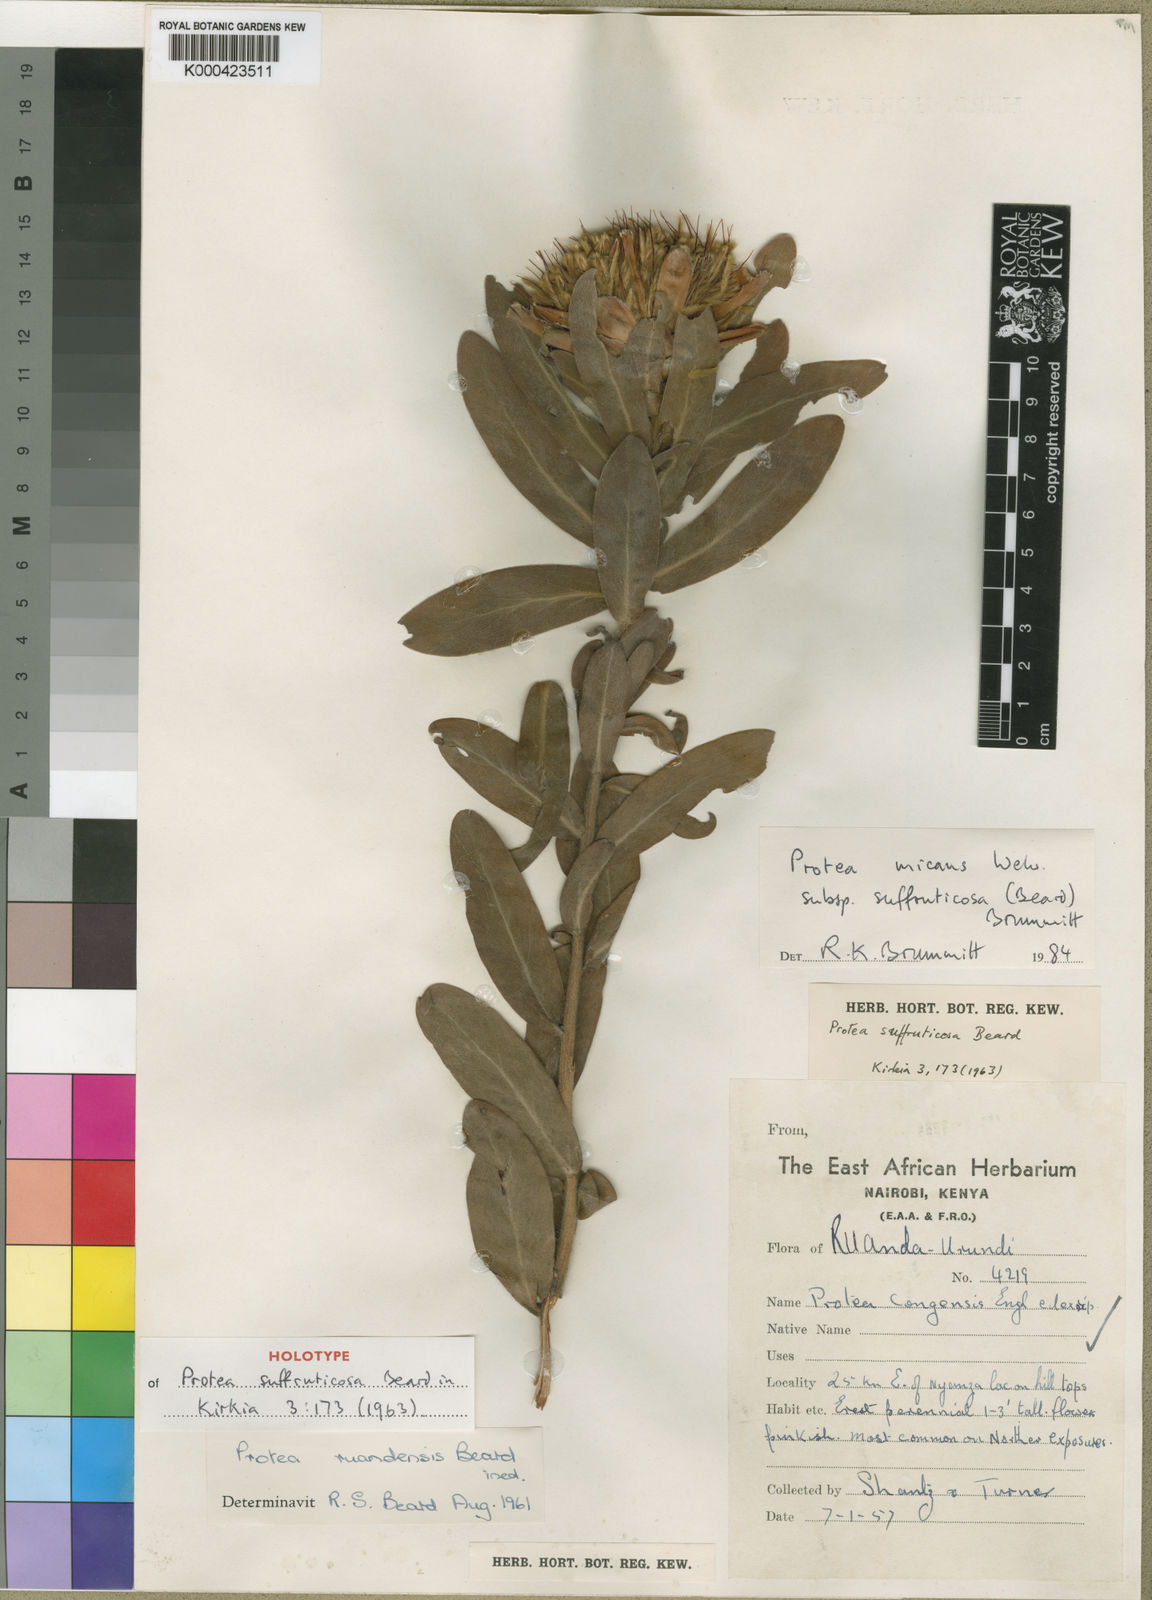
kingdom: Plantae
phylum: Tracheophyta
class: Magnoliopsida
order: Proteales
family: Proteaceae
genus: Protea
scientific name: Protea micans
